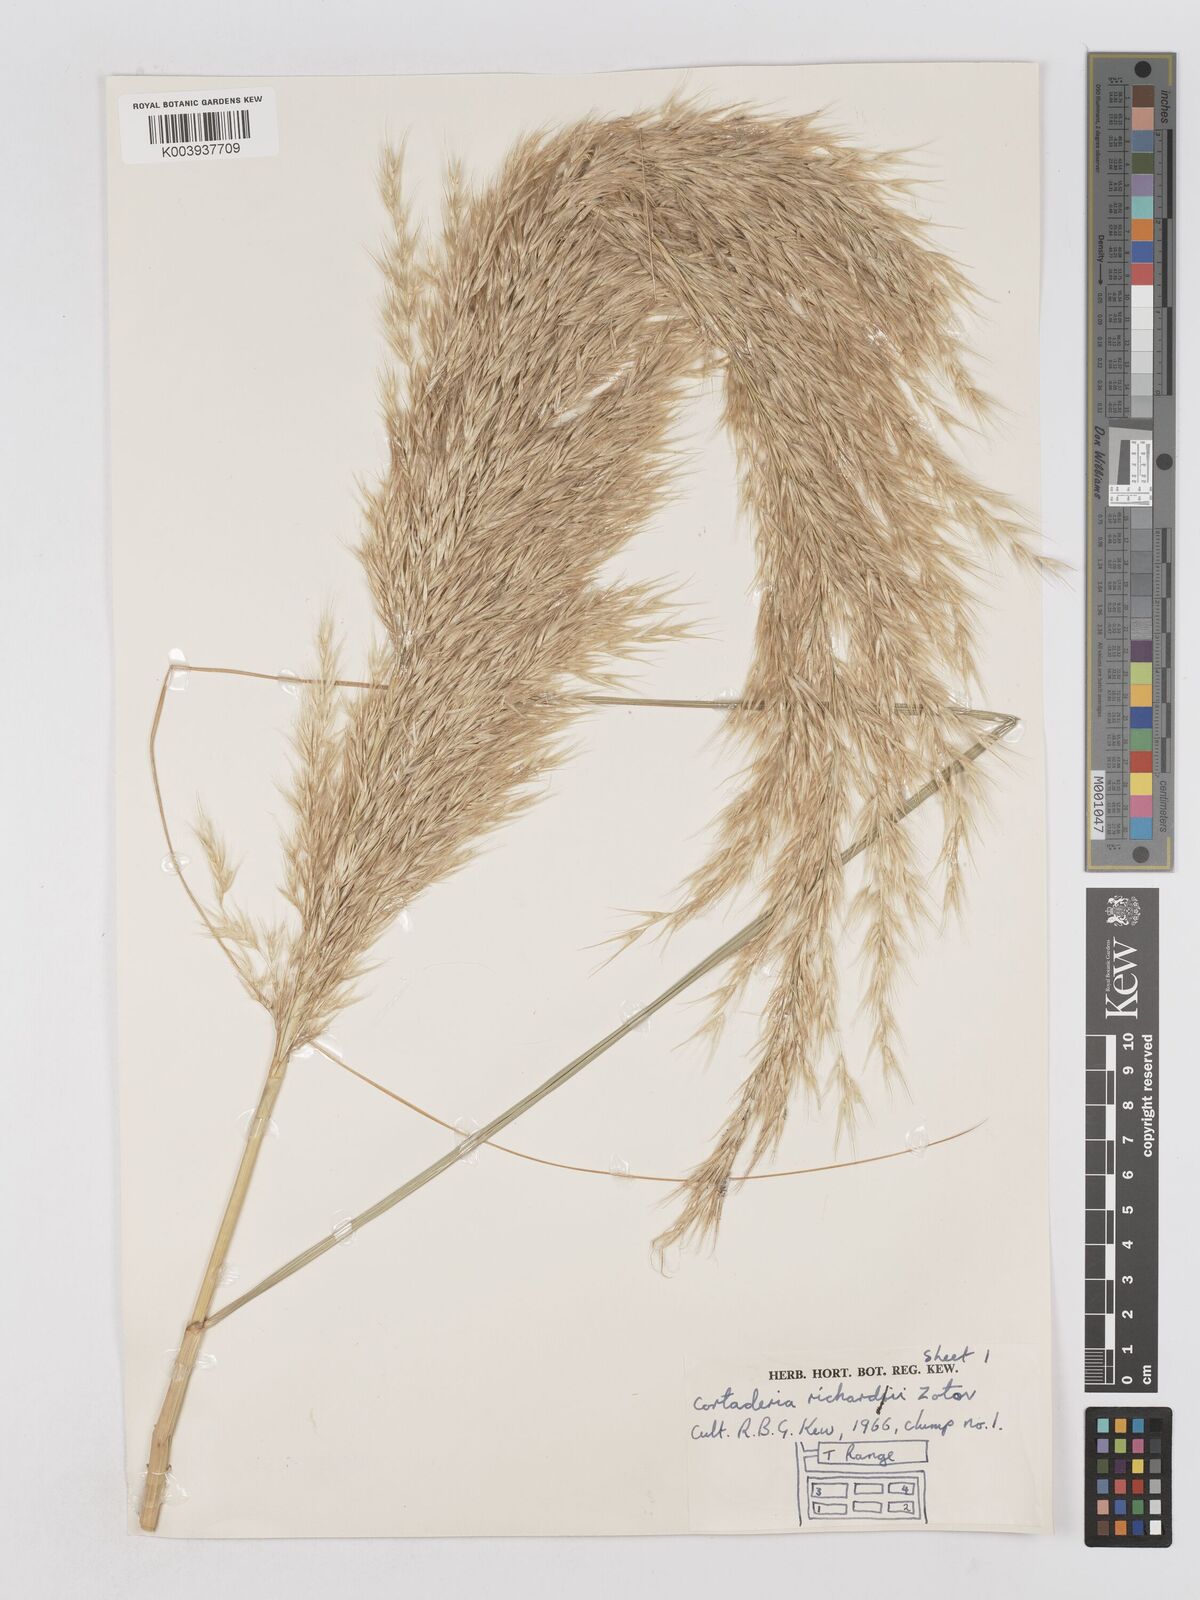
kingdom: Plantae
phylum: Tracheophyta
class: Liliopsida
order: Poales
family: Poaceae
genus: Austroderia
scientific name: Austroderia richardii
